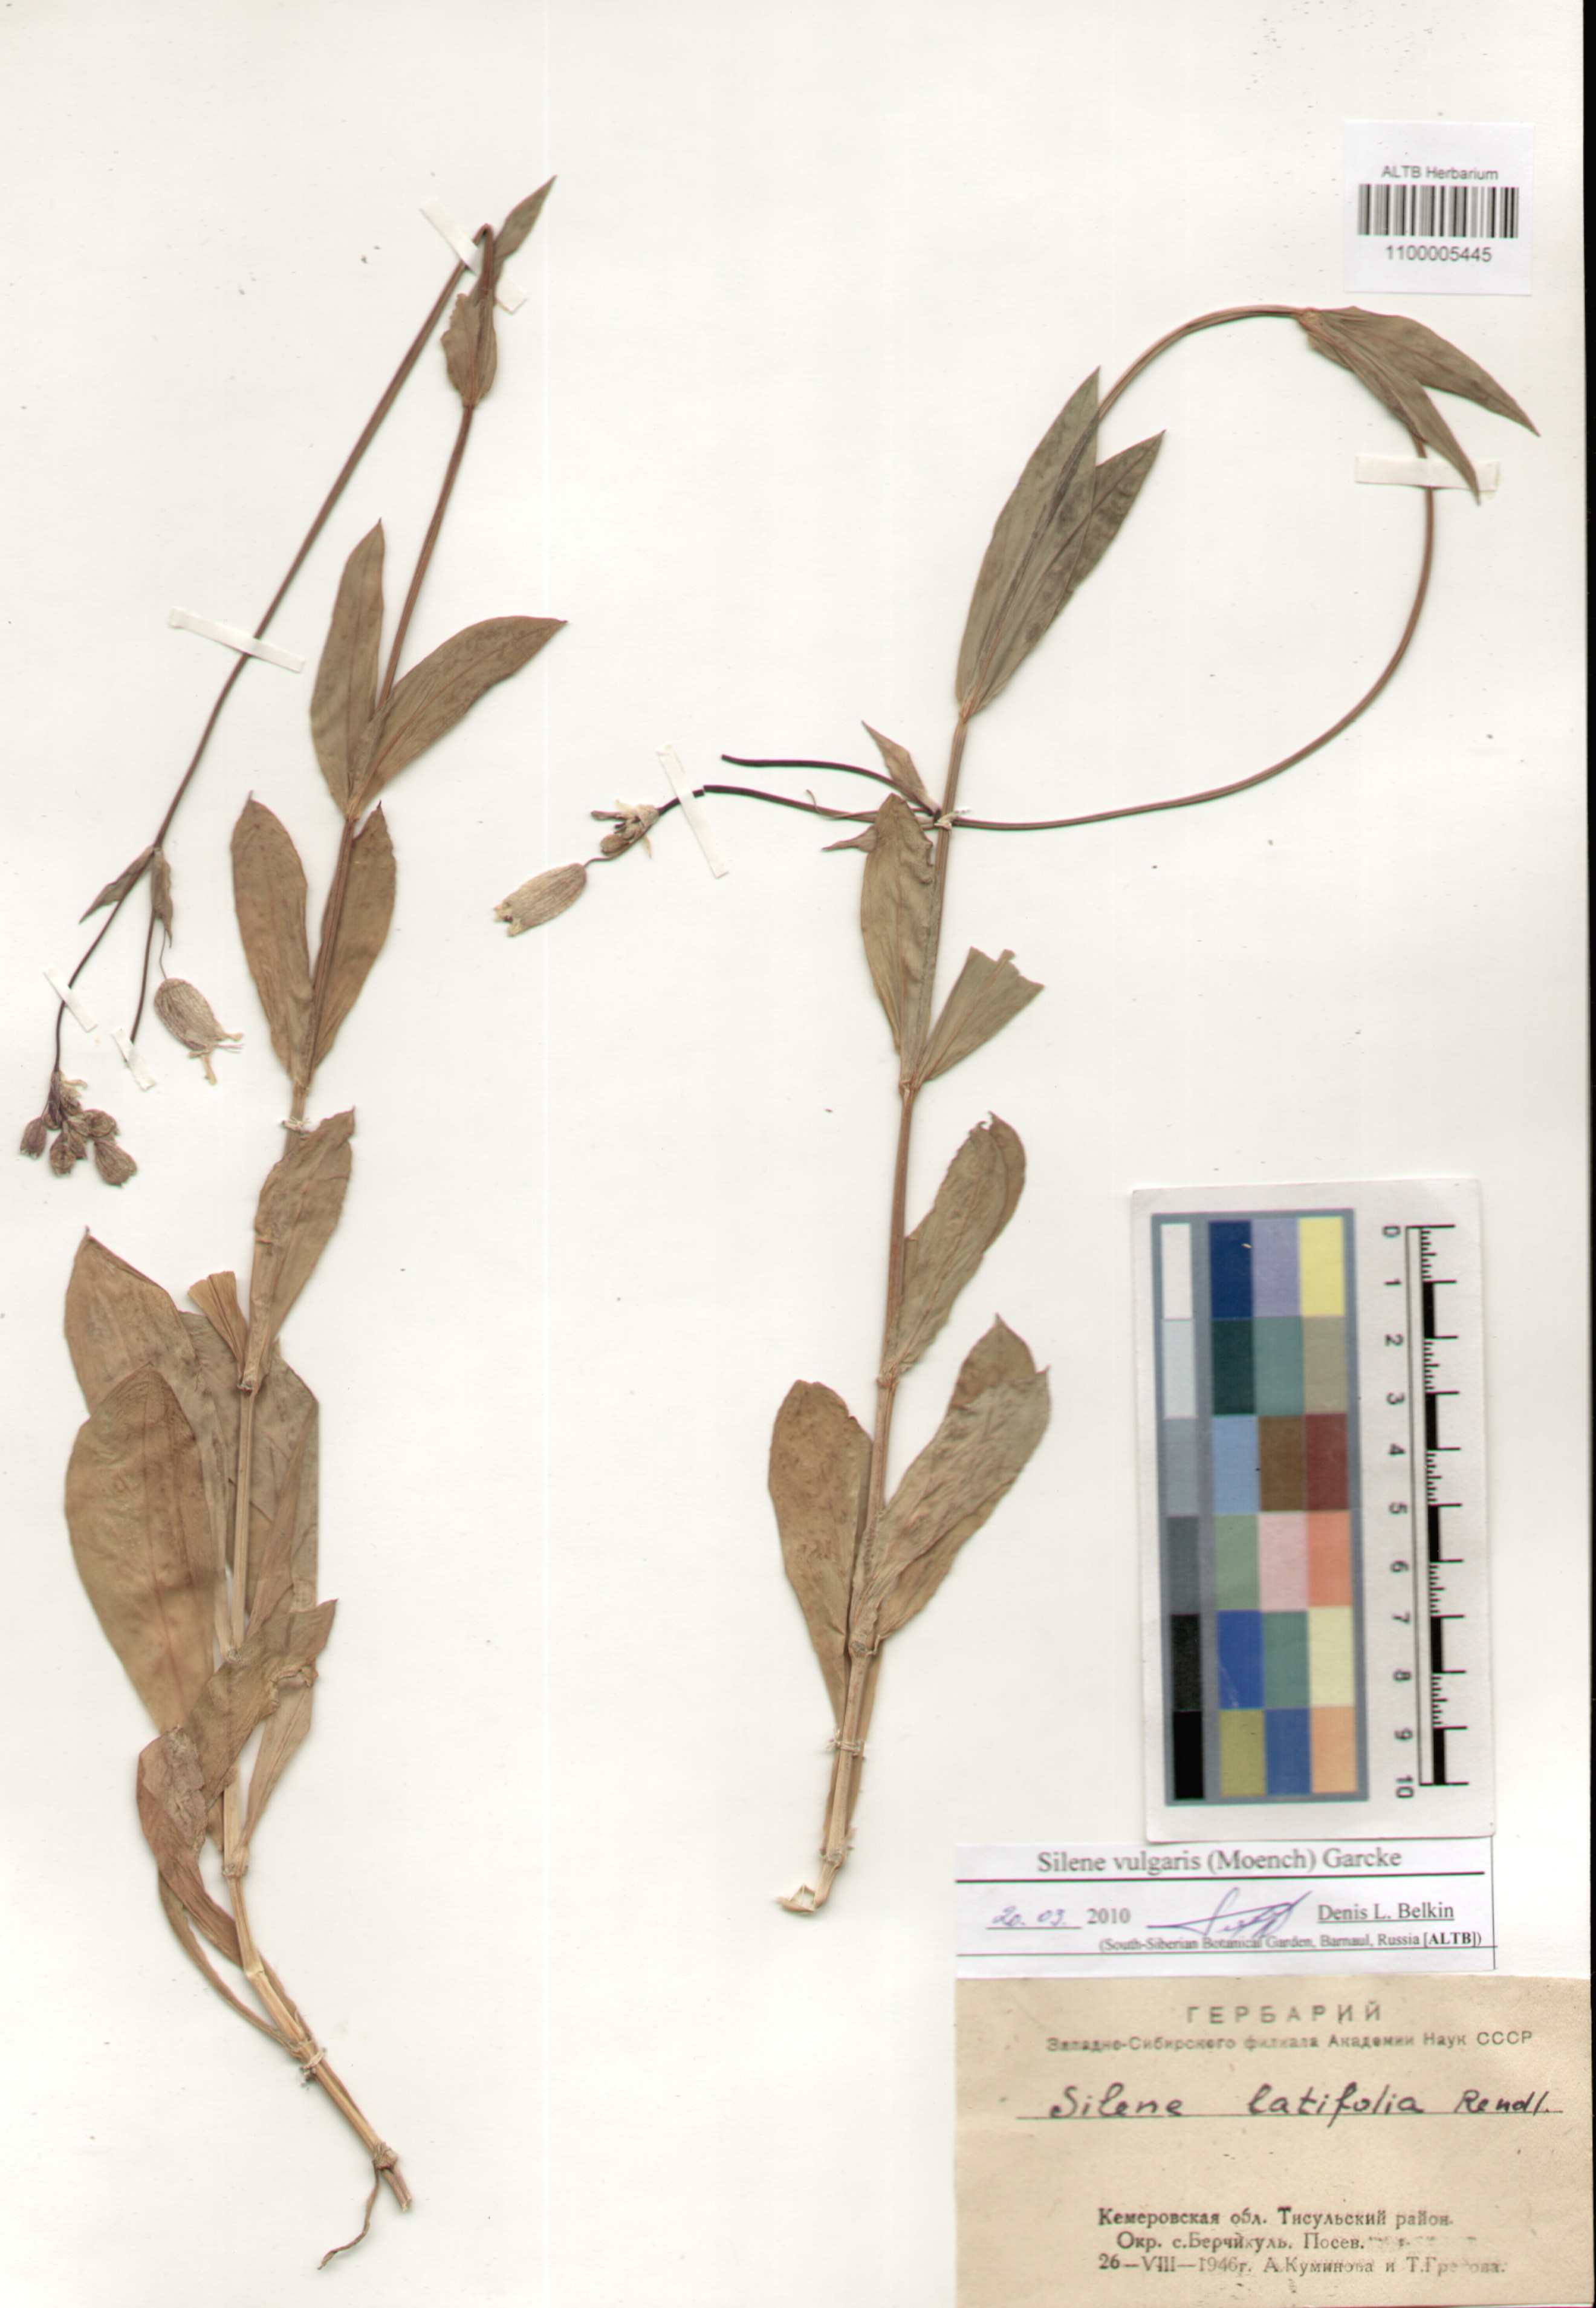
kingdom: Plantae
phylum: Tracheophyta
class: Magnoliopsida
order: Caryophyllales
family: Caryophyllaceae
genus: Silene
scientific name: Silene vulgaris
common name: Bladder campion
